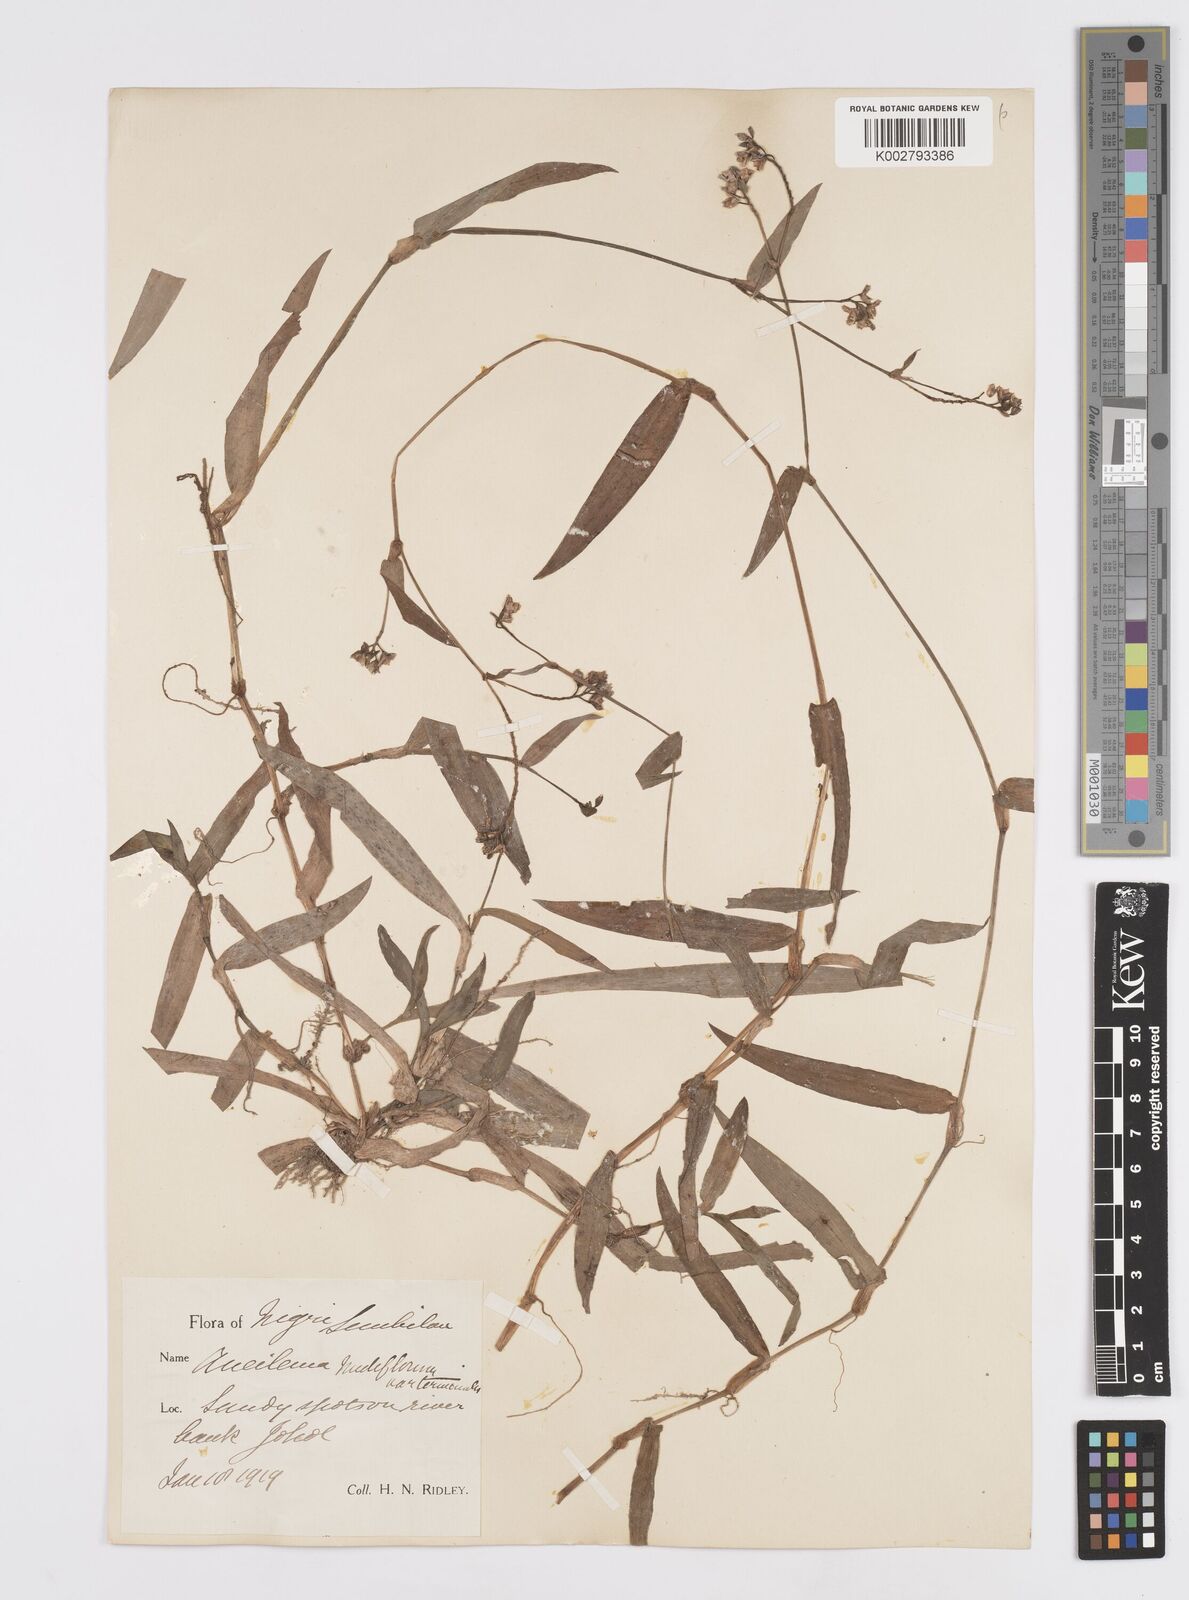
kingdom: Plantae
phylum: Tracheophyta
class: Liliopsida
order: Commelinales
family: Commelinaceae
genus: Murdannia
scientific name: Murdannia
